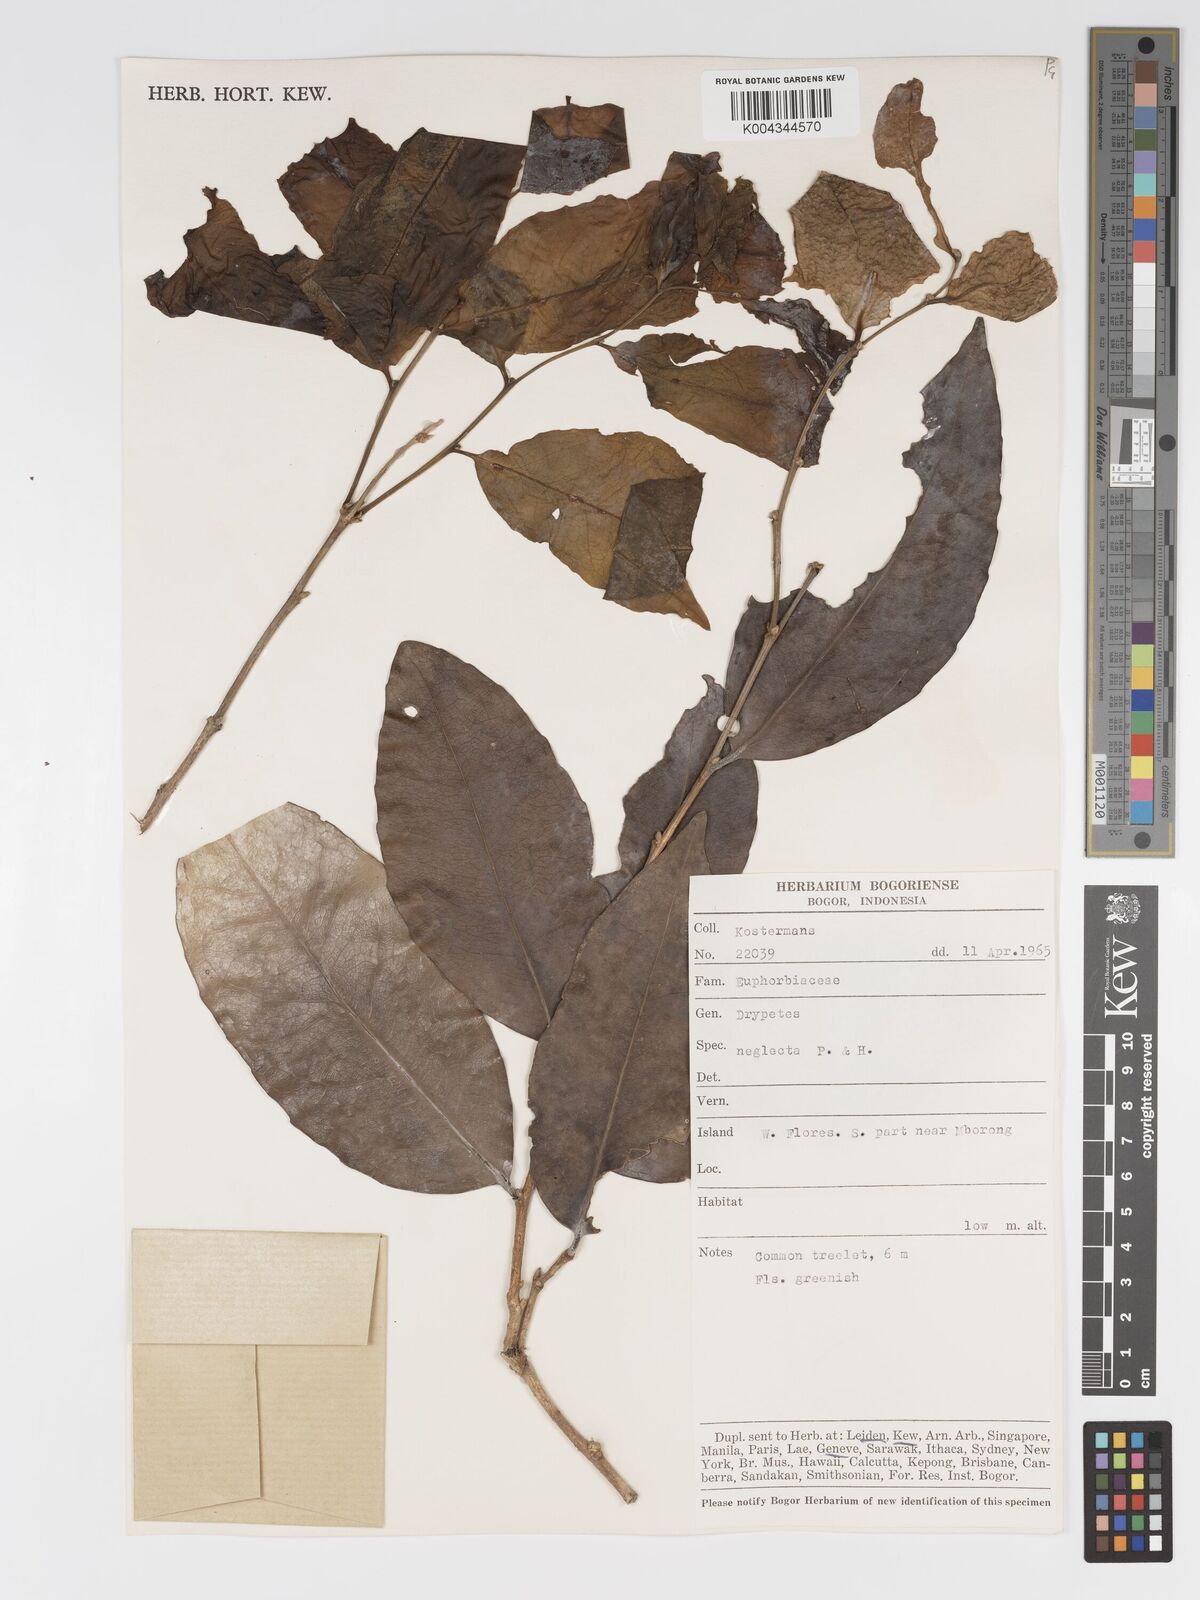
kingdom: Plantae
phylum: Tracheophyta
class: Magnoliopsida
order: Malpighiales
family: Putranjivaceae
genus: Drypetes
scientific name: Drypetes neglecta
